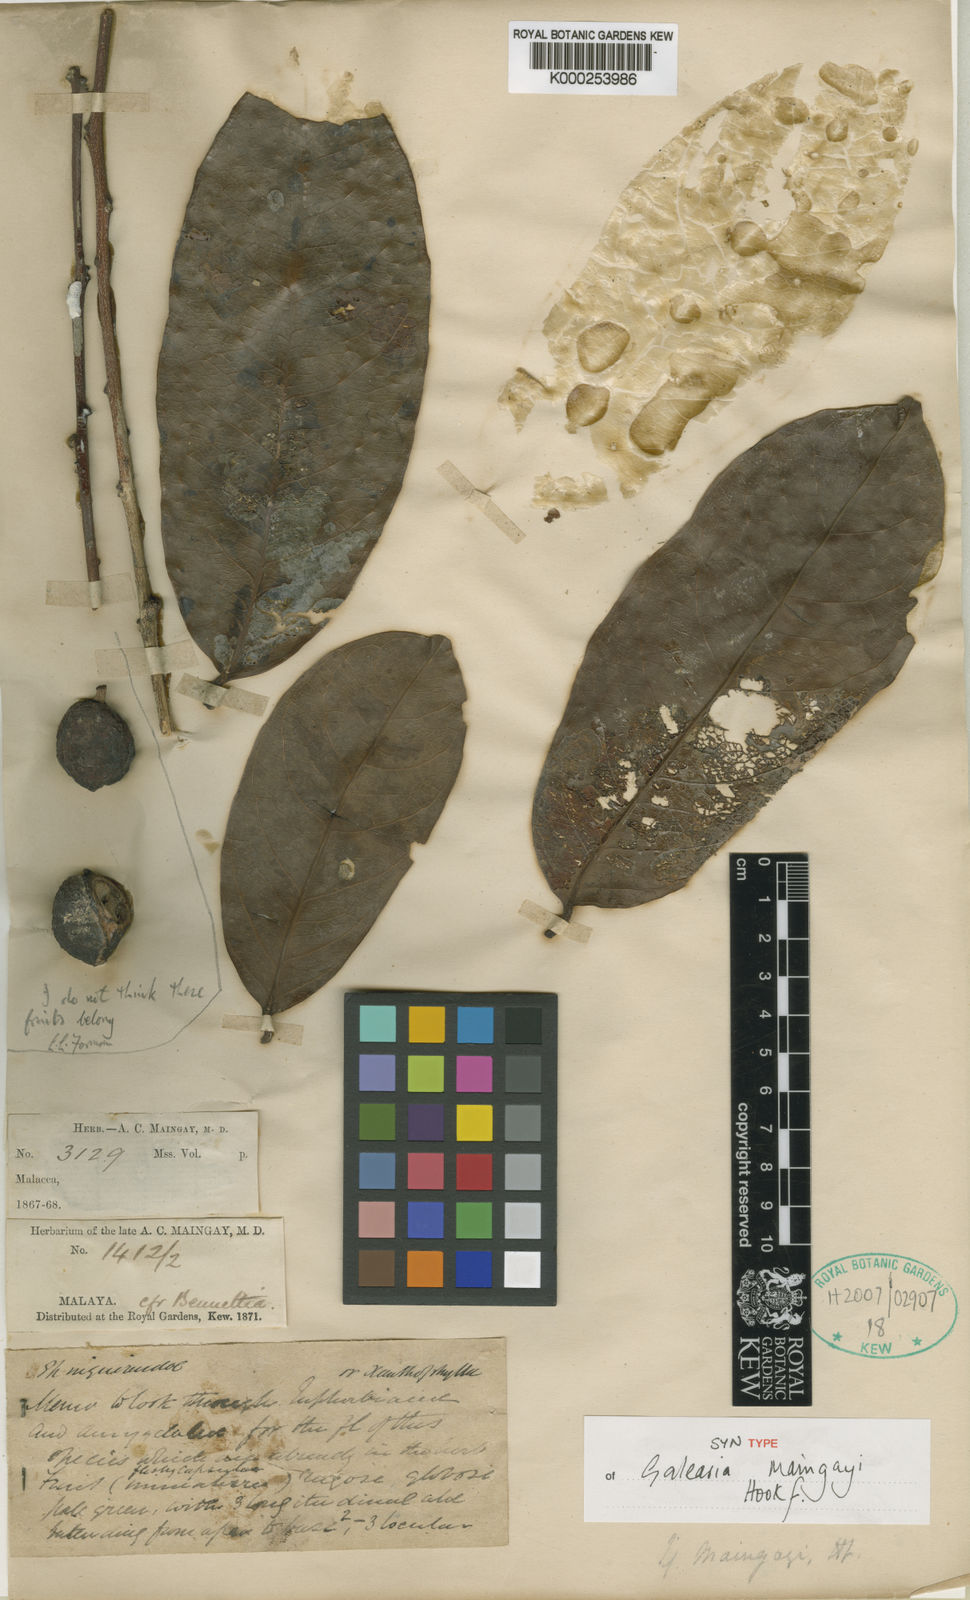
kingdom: Plantae
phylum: Tracheophyta
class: Magnoliopsida
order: Malpighiales
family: Pandaceae
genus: Galearia
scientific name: Galearia maingayi
